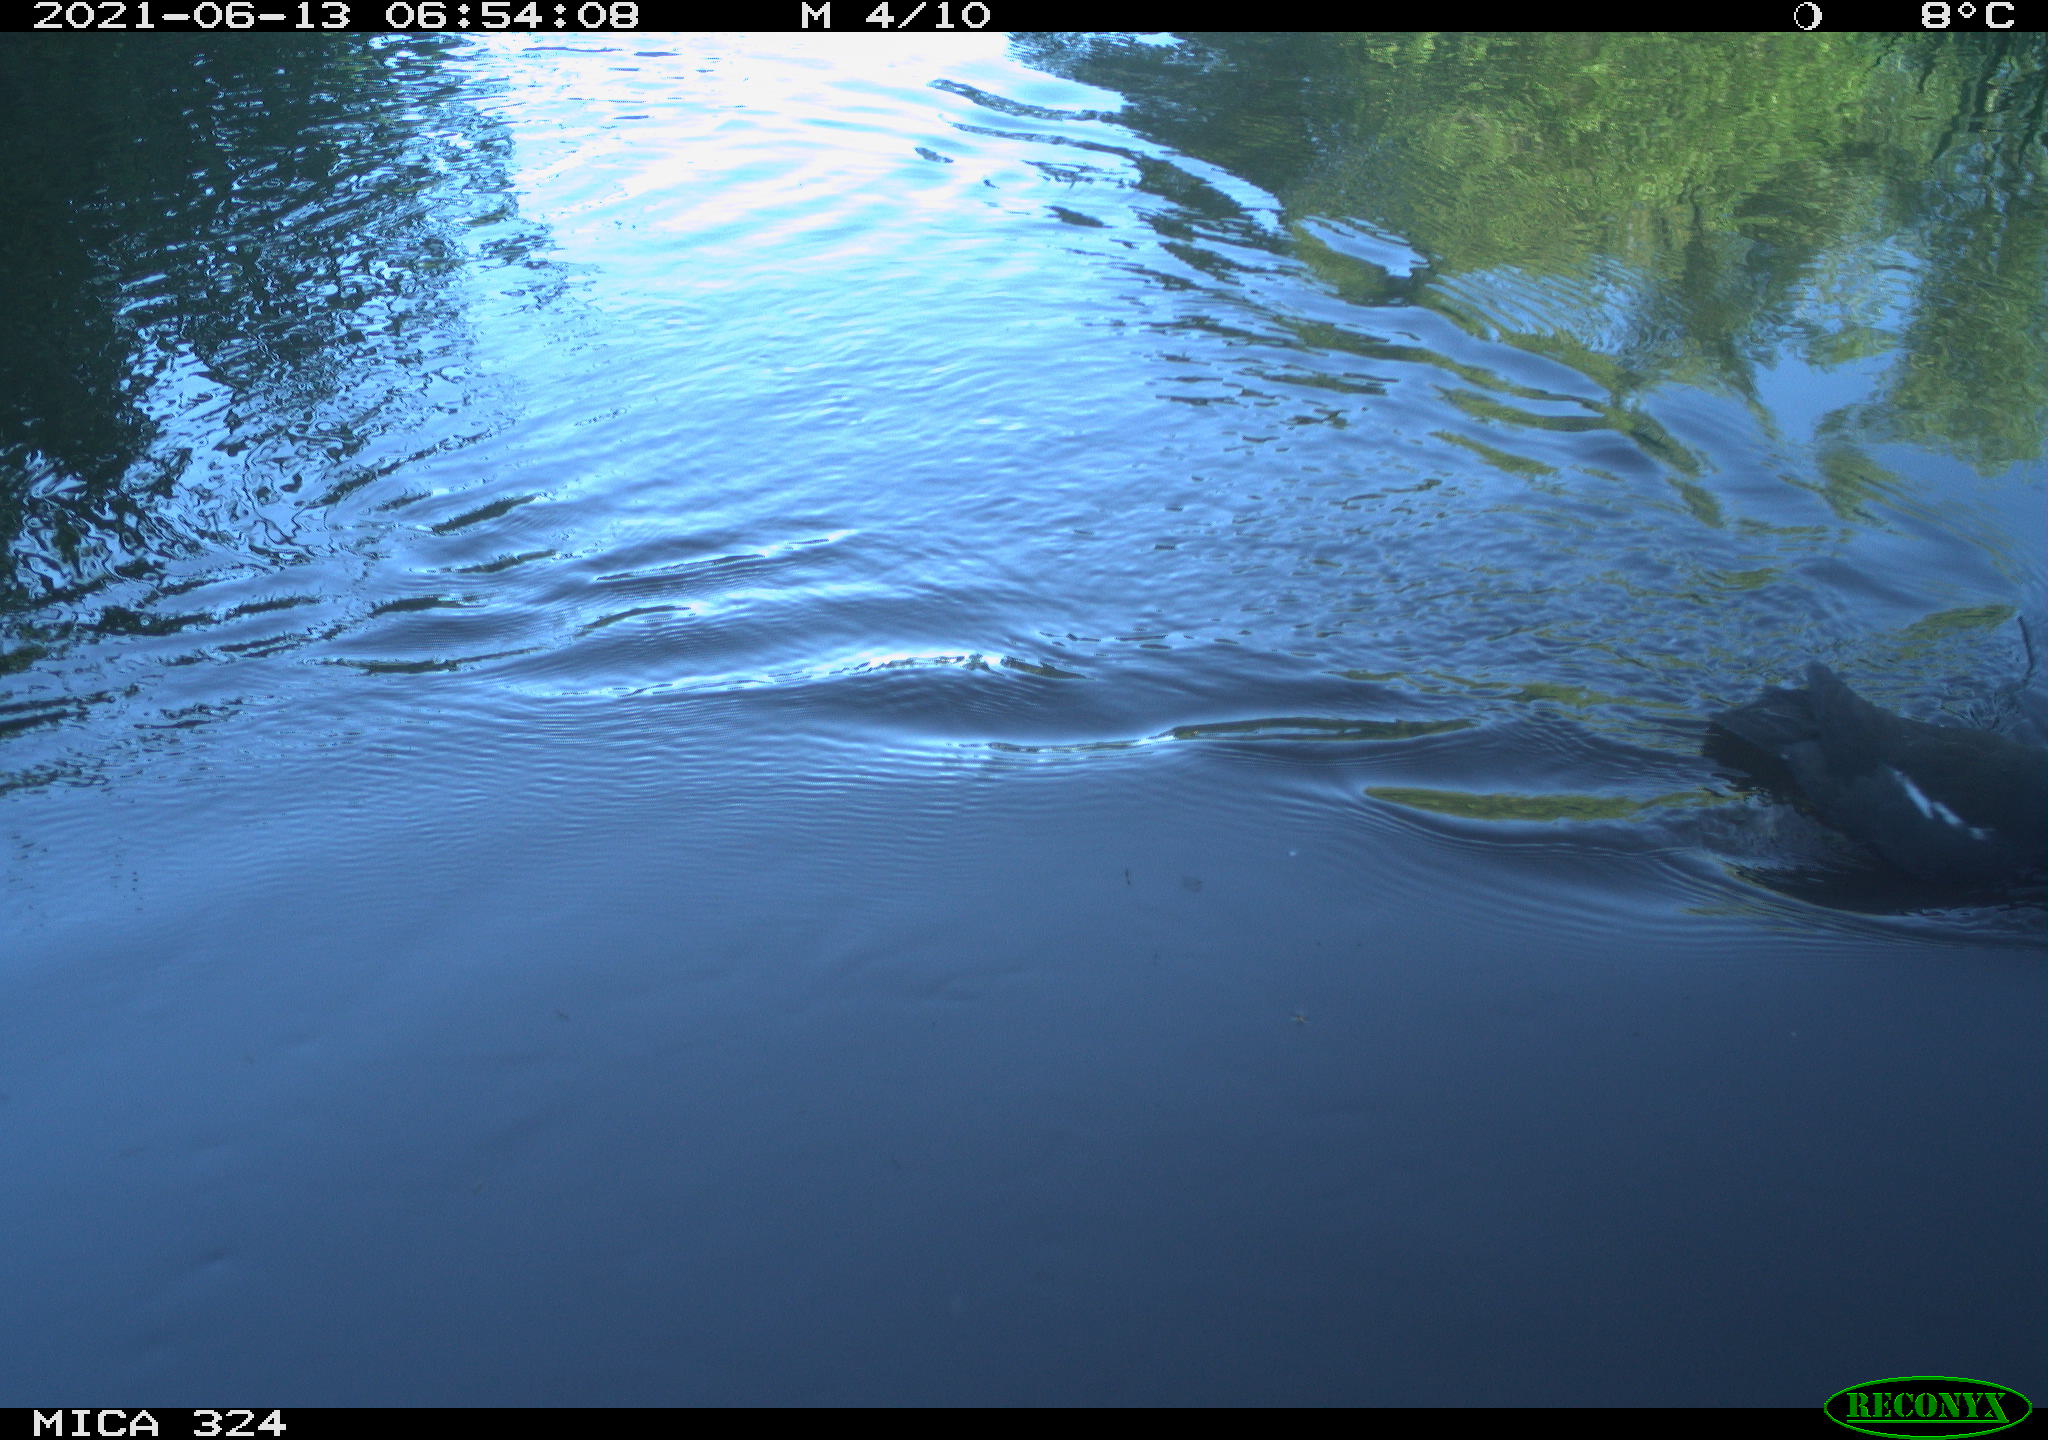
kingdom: Animalia
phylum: Chordata
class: Aves
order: Gruiformes
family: Rallidae
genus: Gallinula
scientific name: Gallinula chloropus
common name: Common moorhen
